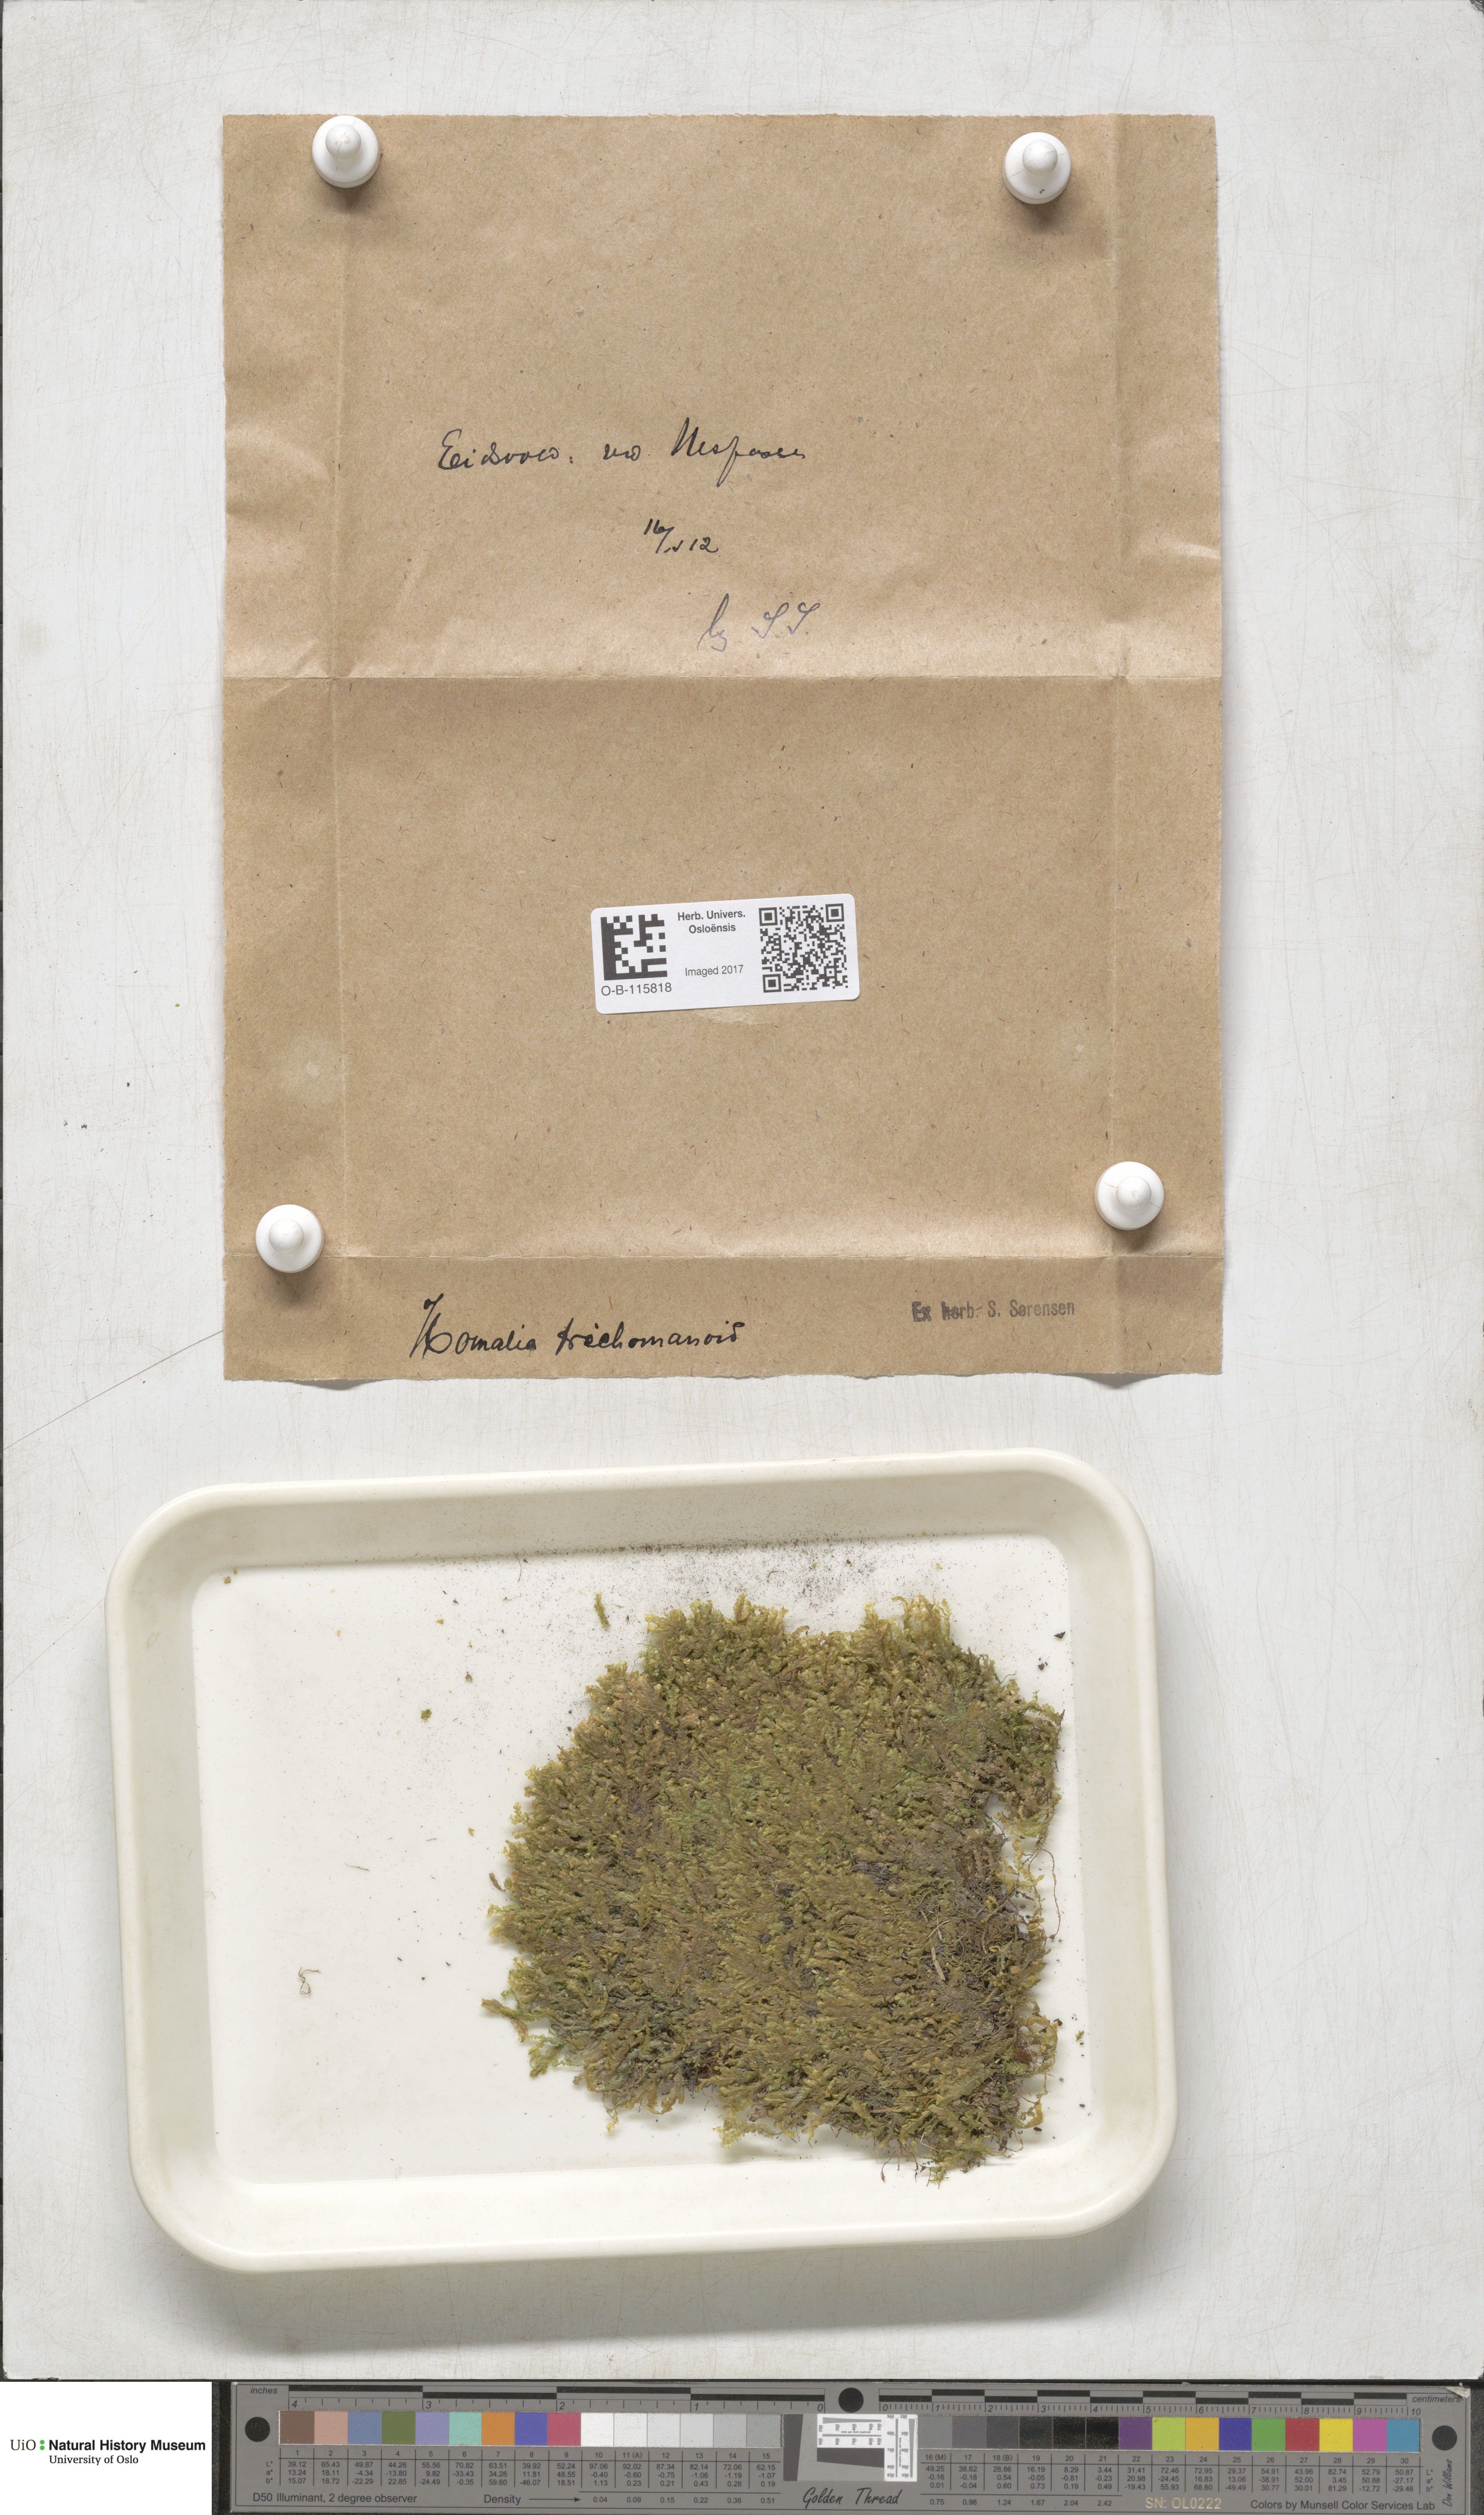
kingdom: Plantae
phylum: Bryophyta
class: Bryopsida
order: Hypnales
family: Neckeraceae
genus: Homalia
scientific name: Homalia trichomanoides
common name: Lime homalia moss
